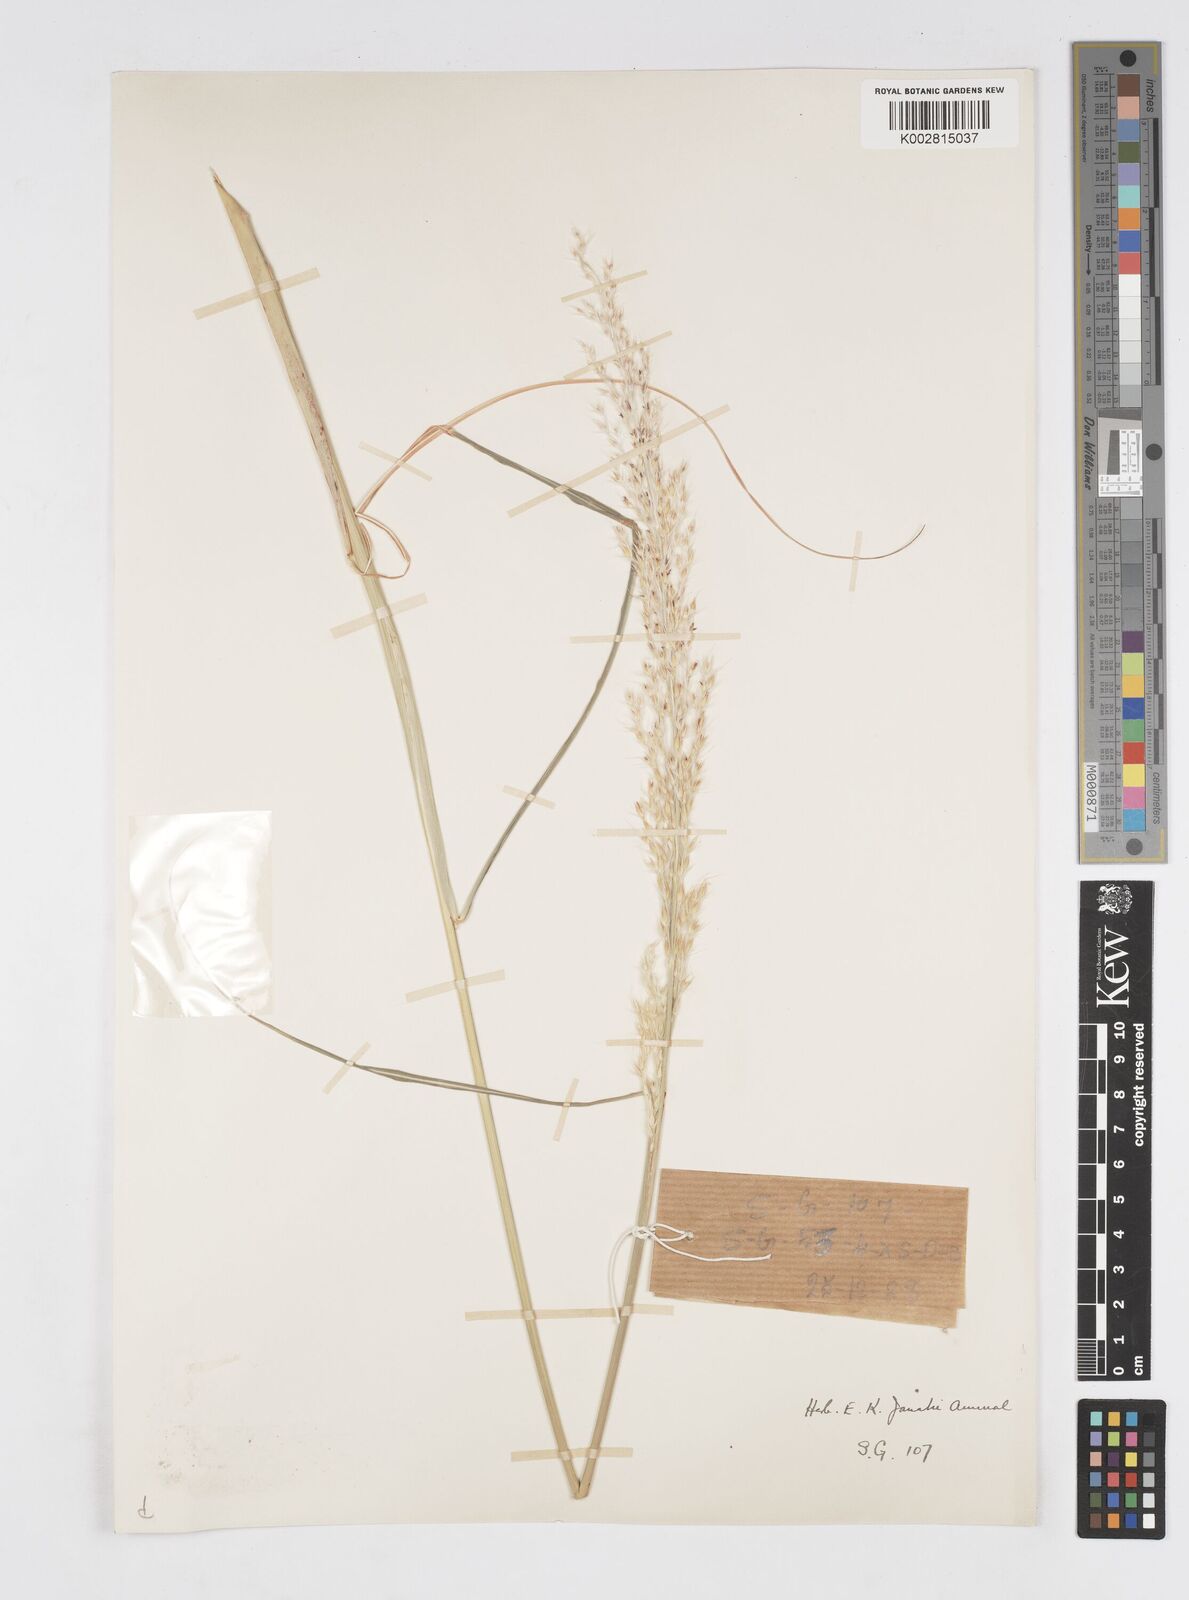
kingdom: Plantae
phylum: Tracheophyta
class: Liliopsida
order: Poales
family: Poaceae
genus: Saccharum
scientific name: Saccharum
